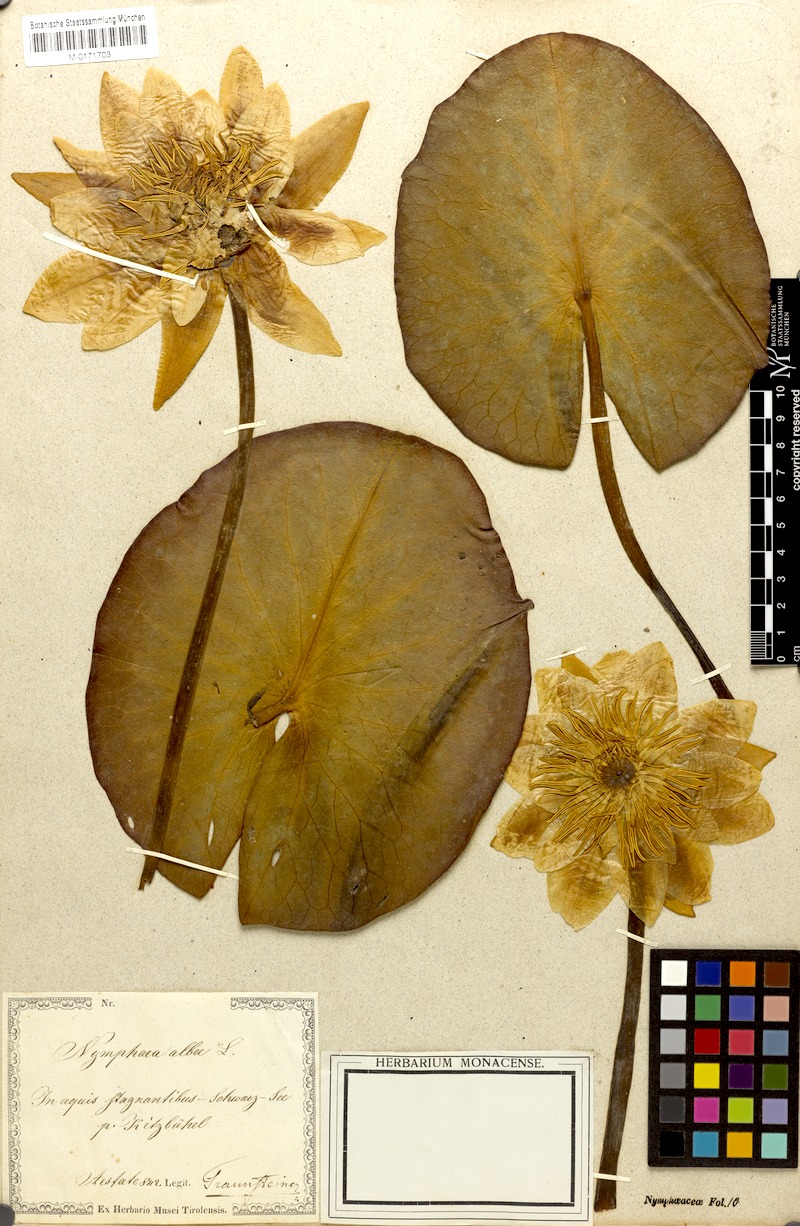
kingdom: Plantae
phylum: Tracheophyta
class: Magnoliopsida
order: Nymphaeales
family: Nymphaeaceae
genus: Nymphaea
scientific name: Nymphaea alba
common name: White water-lily
